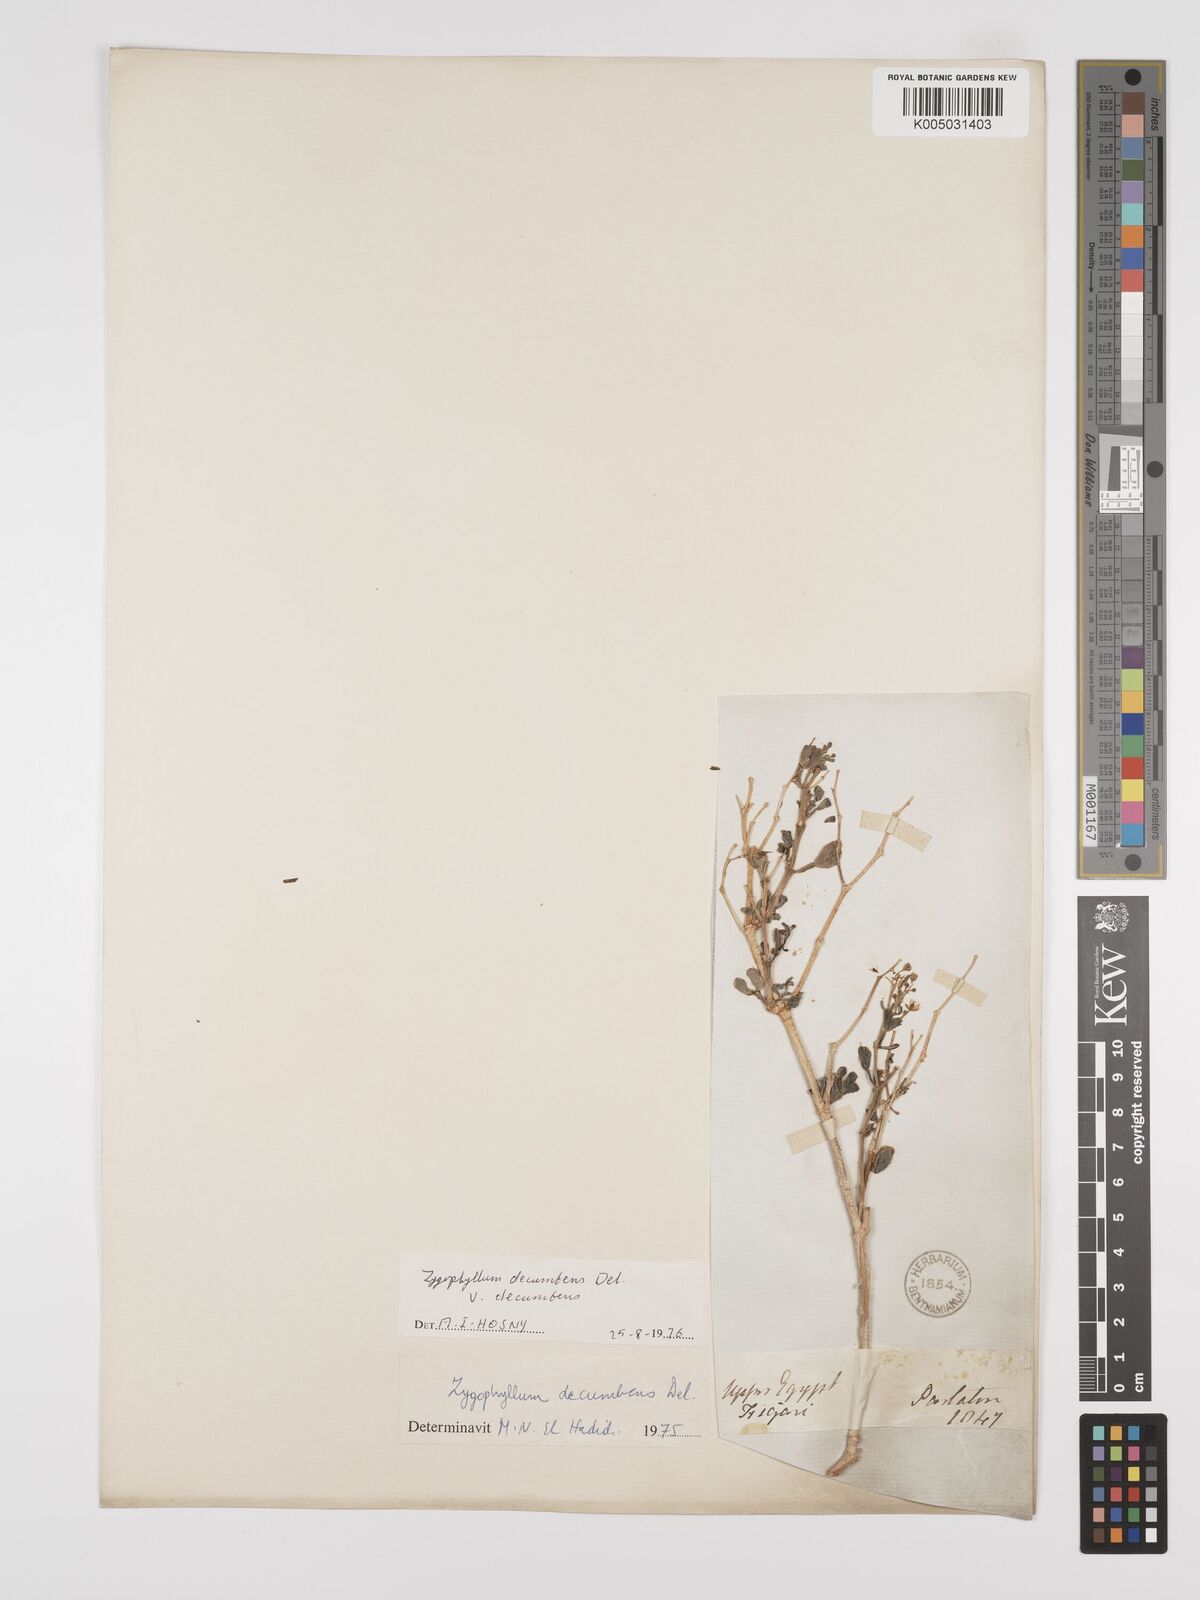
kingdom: Plantae
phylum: Tracheophyta
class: Magnoliopsida
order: Zygophyllales
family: Zygophyllaceae
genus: Tetraena
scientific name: Tetraena decumbens
